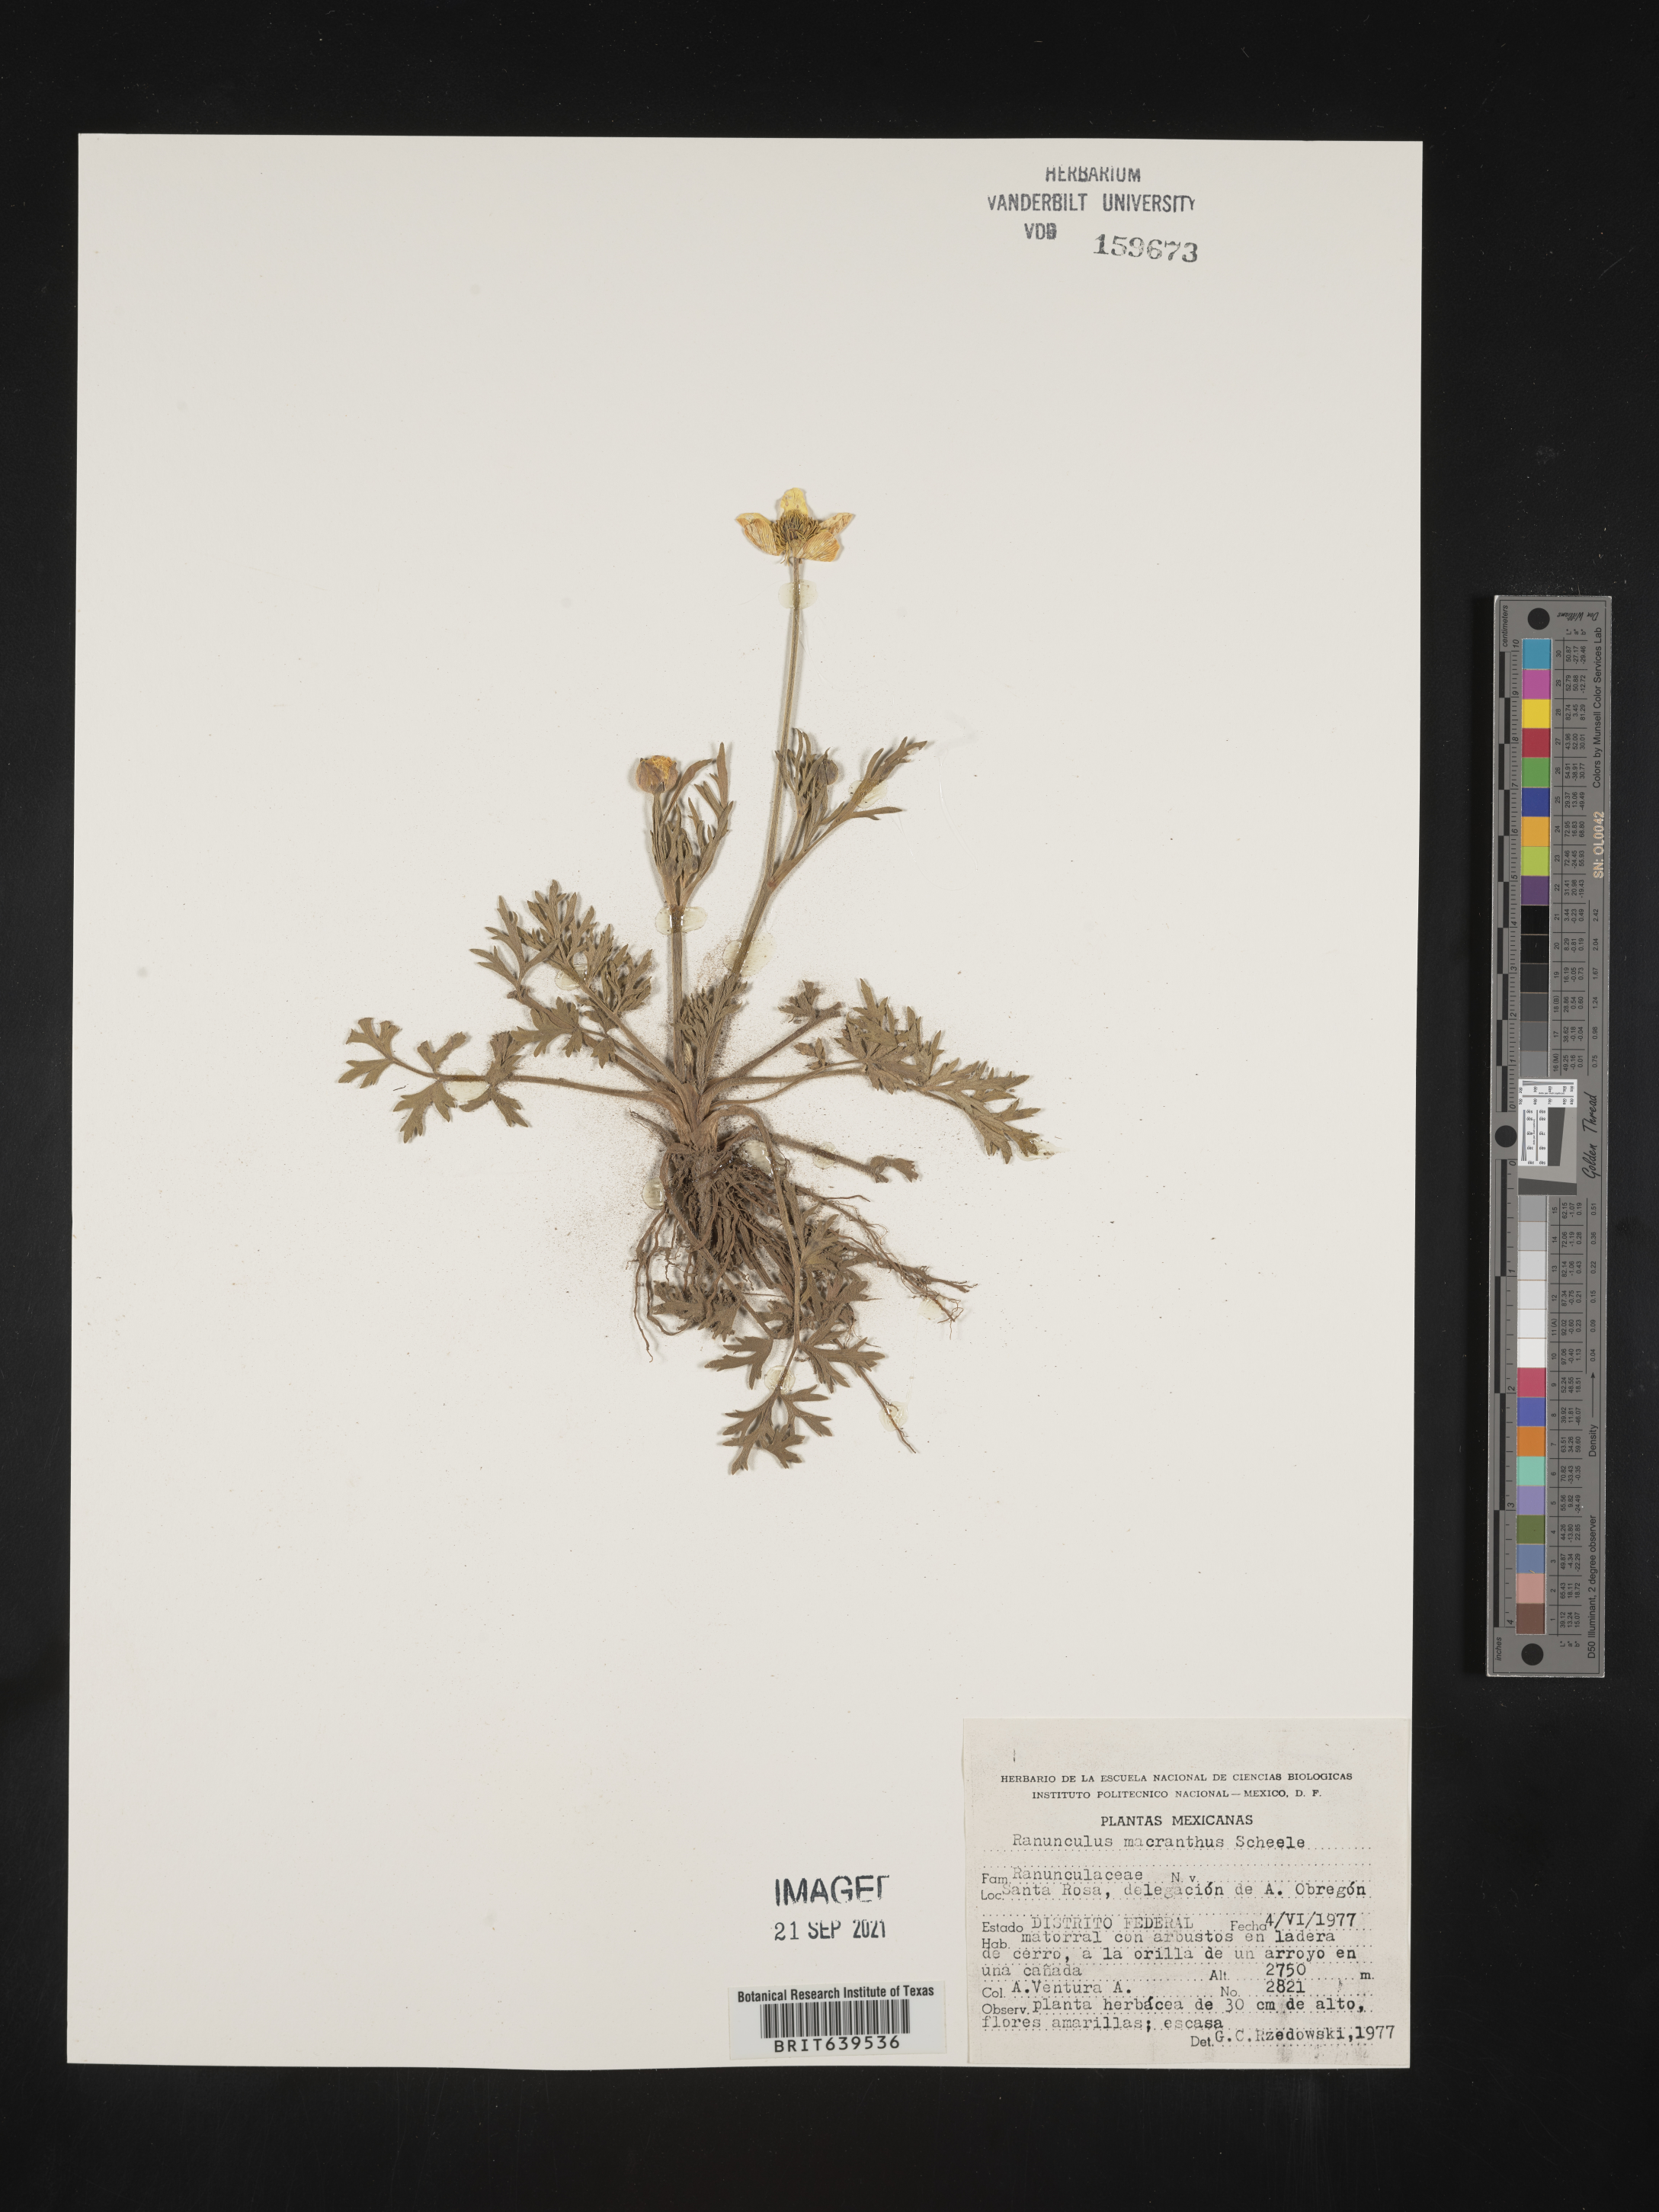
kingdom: Plantae
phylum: Tracheophyta
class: Magnoliopsida
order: Ranunculales
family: Ranunculaceae
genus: Ranunculus
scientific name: Ranunculus
